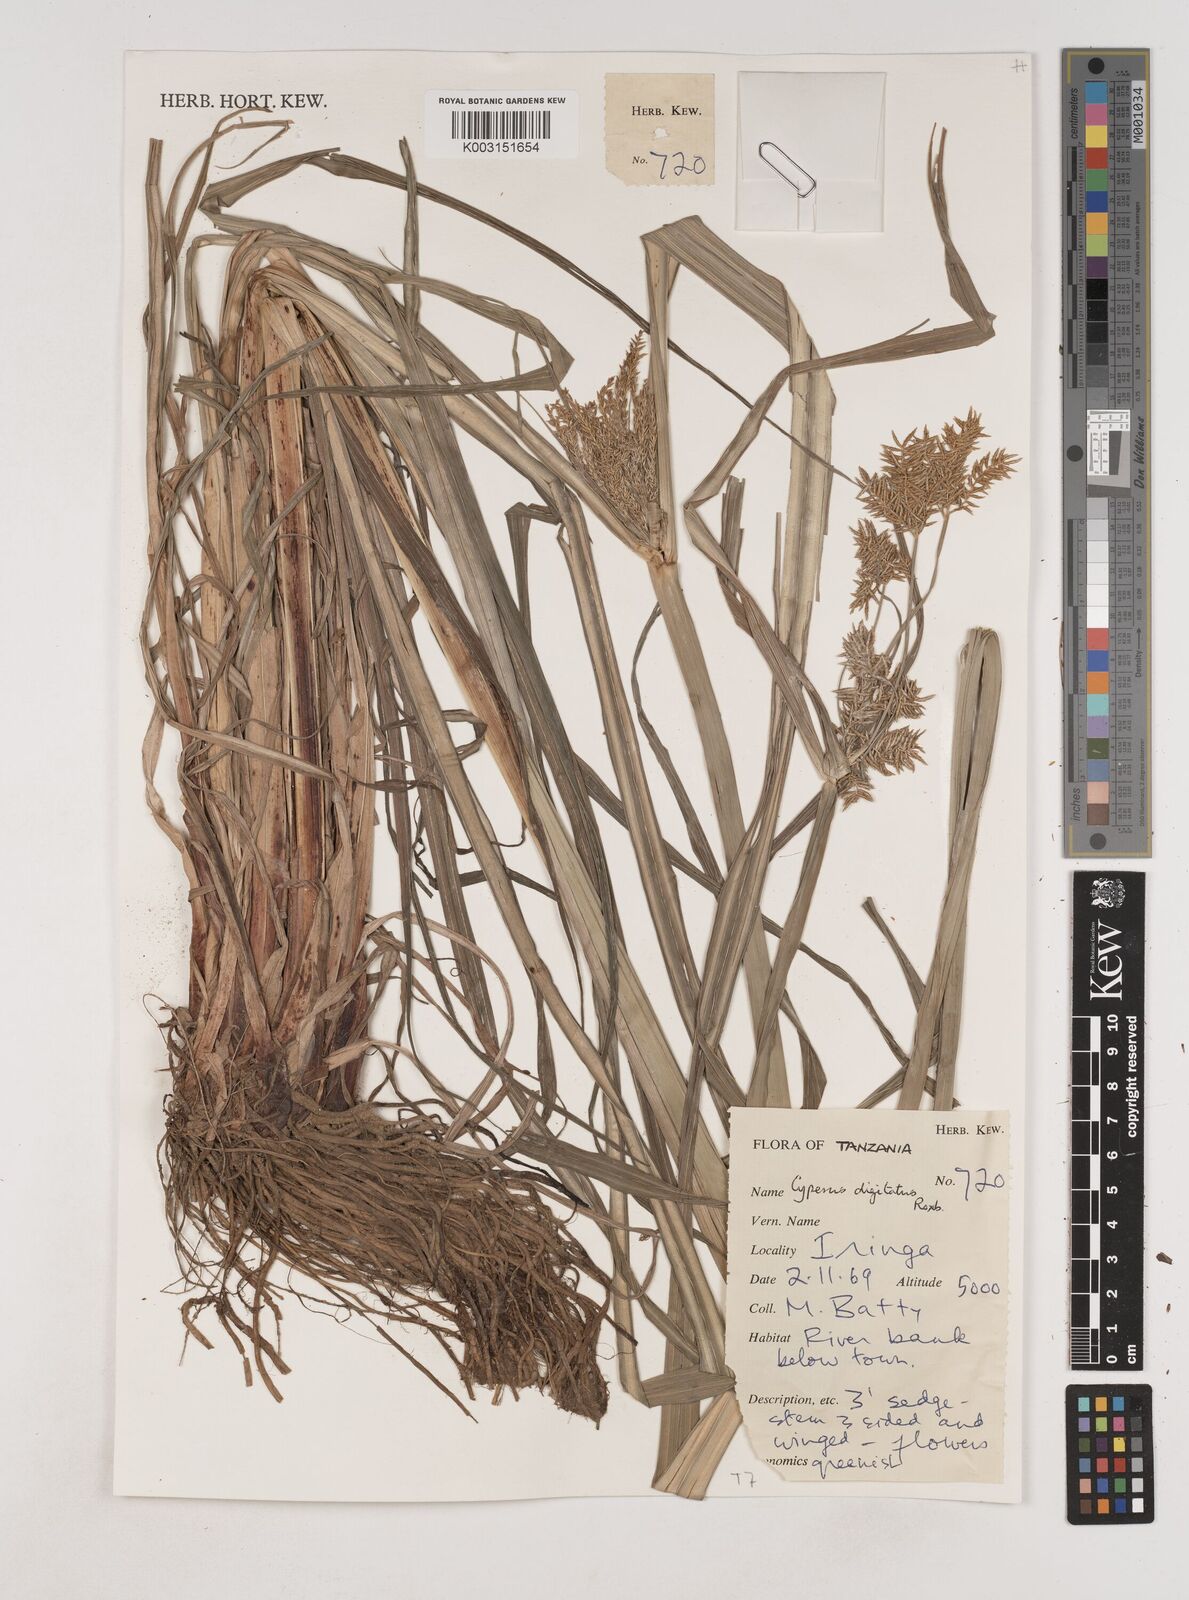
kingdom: Plantae
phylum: Tracheophyta
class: Liliopsida
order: Poales
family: Cyperaceae
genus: Cyperus
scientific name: Cyperus digitatus
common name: Finger flatsedge
